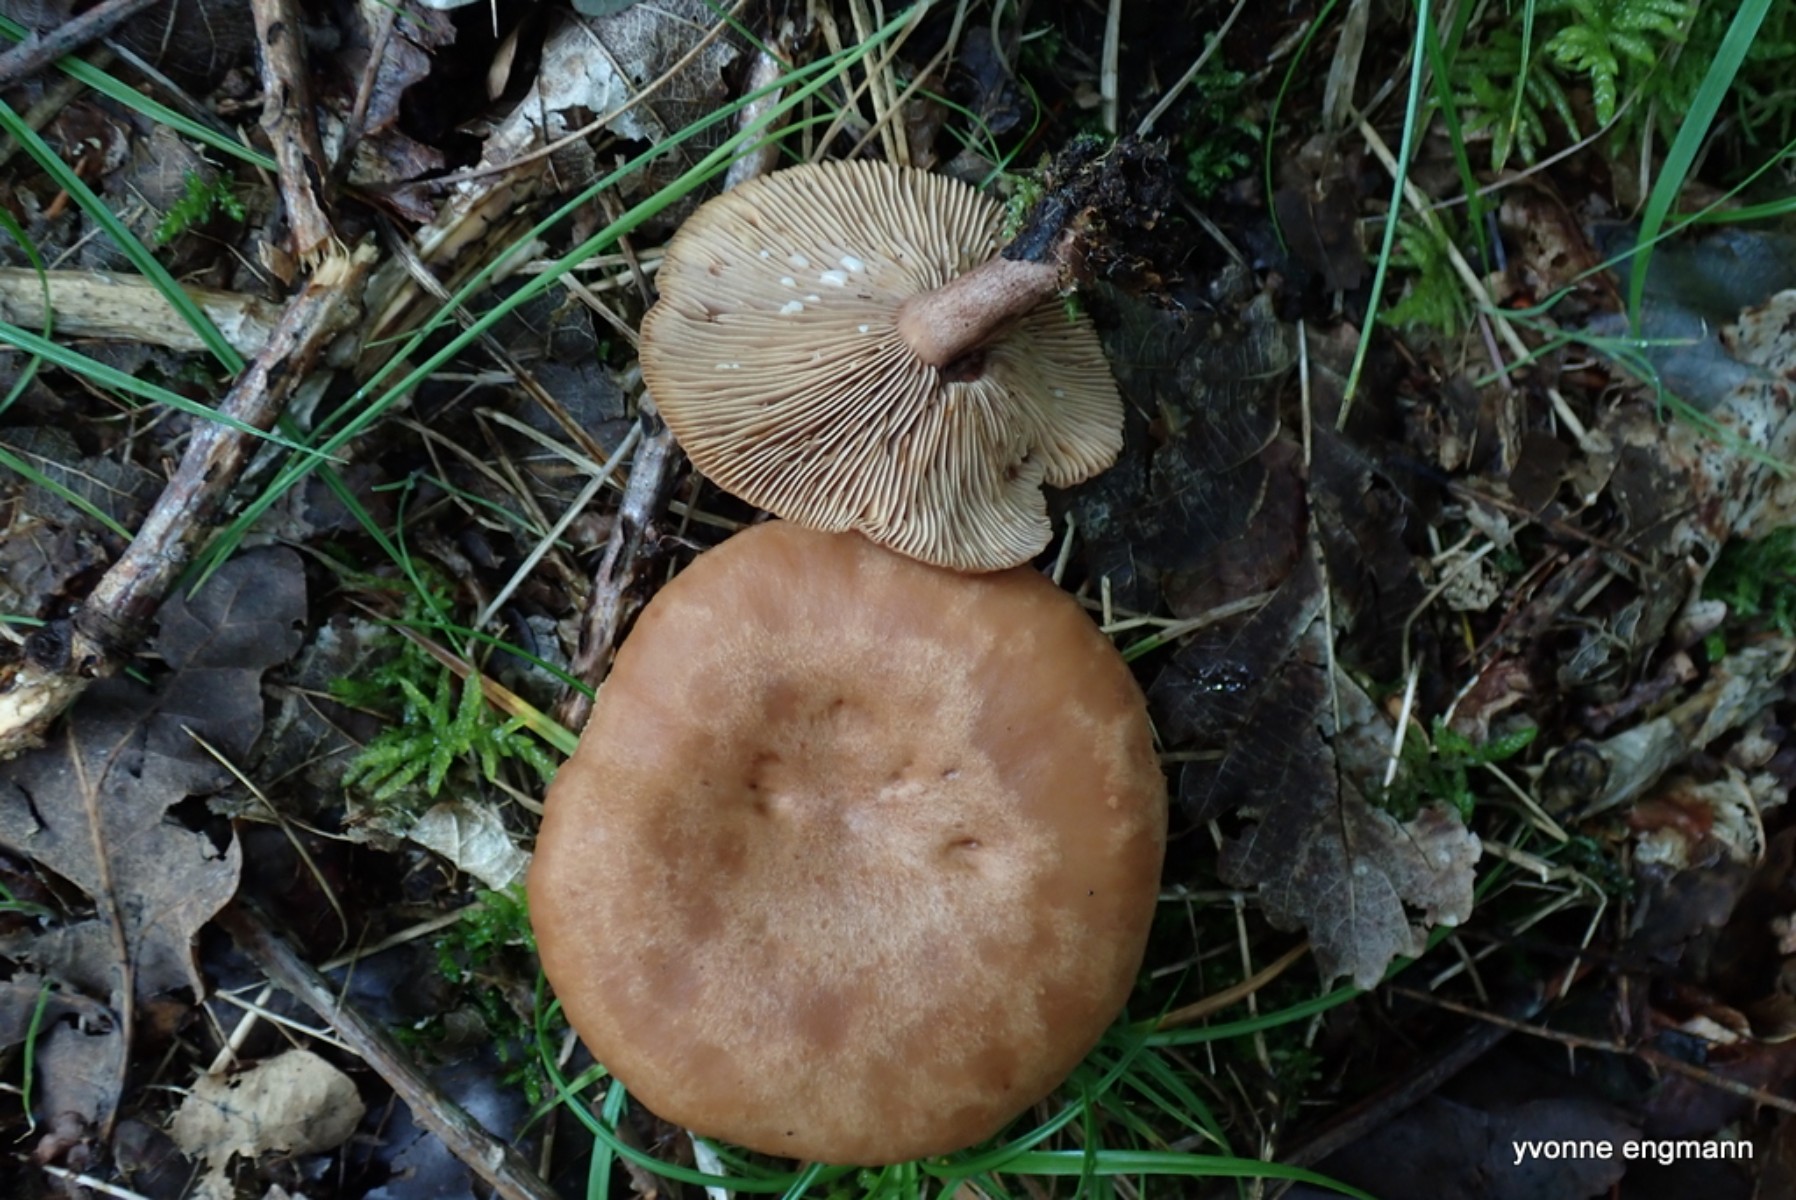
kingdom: Fungi
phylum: Basidiomycota
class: Agaricomycetes
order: Russulales
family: Russulaceae
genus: Lactarius
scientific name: Lactarius quietus
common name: ege-mælkehat
